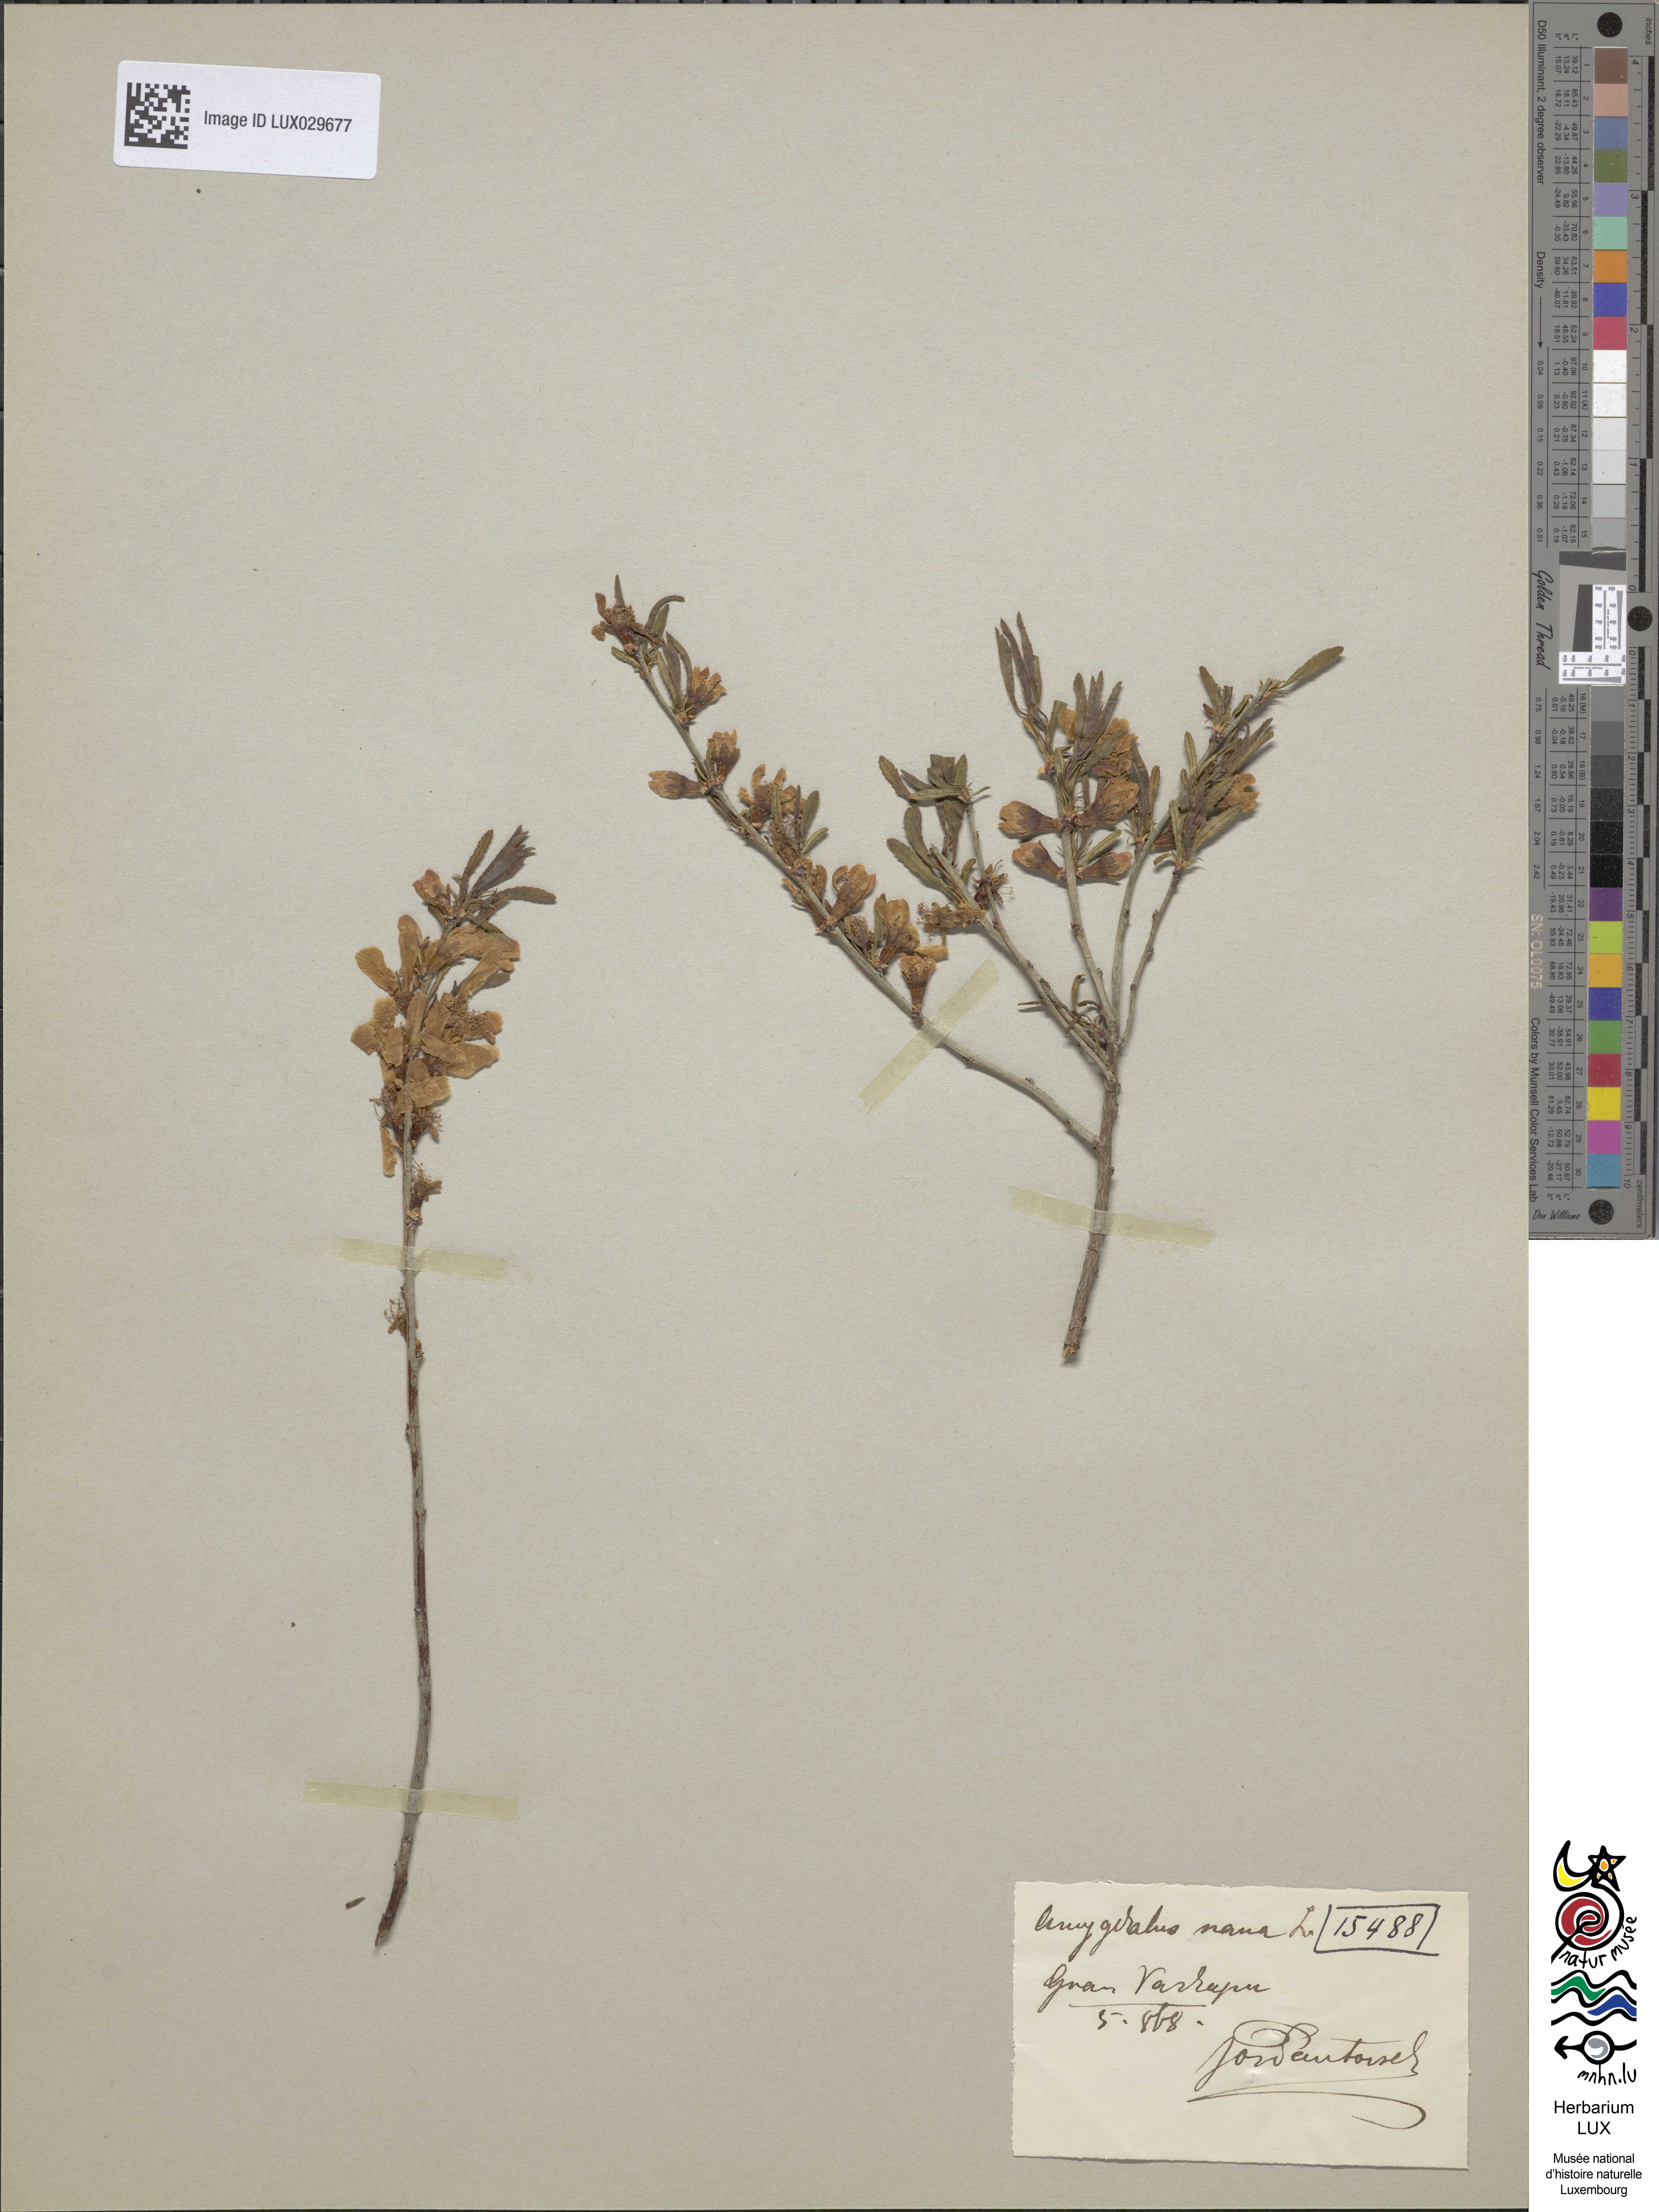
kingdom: Plantae
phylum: Tracheophyta
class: Magnoliopsida
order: Rosales
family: Rosaceae
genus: Prunus
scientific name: Prunus tenella
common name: Dwarf russian almond
